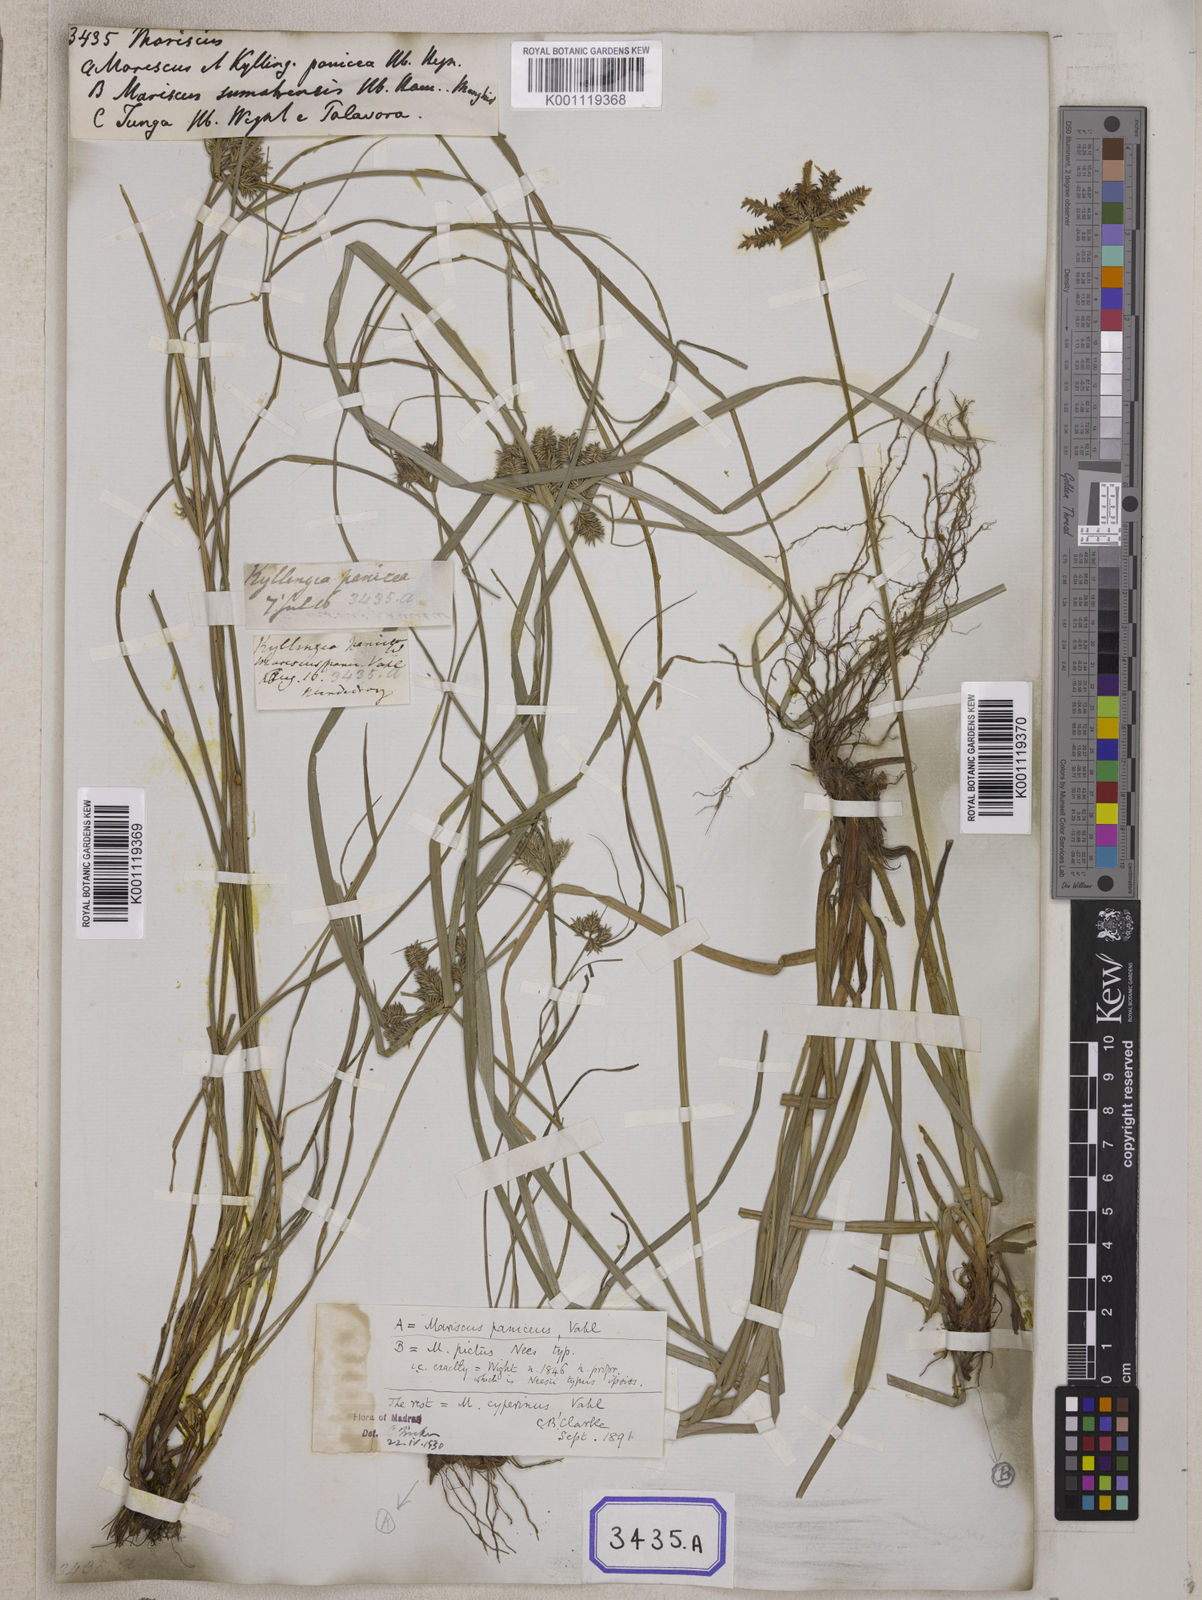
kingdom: Plantae
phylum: Tracheophyta
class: Liliopsida
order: Poales
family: Cyperaceae
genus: Mariscus
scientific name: Mariscus
